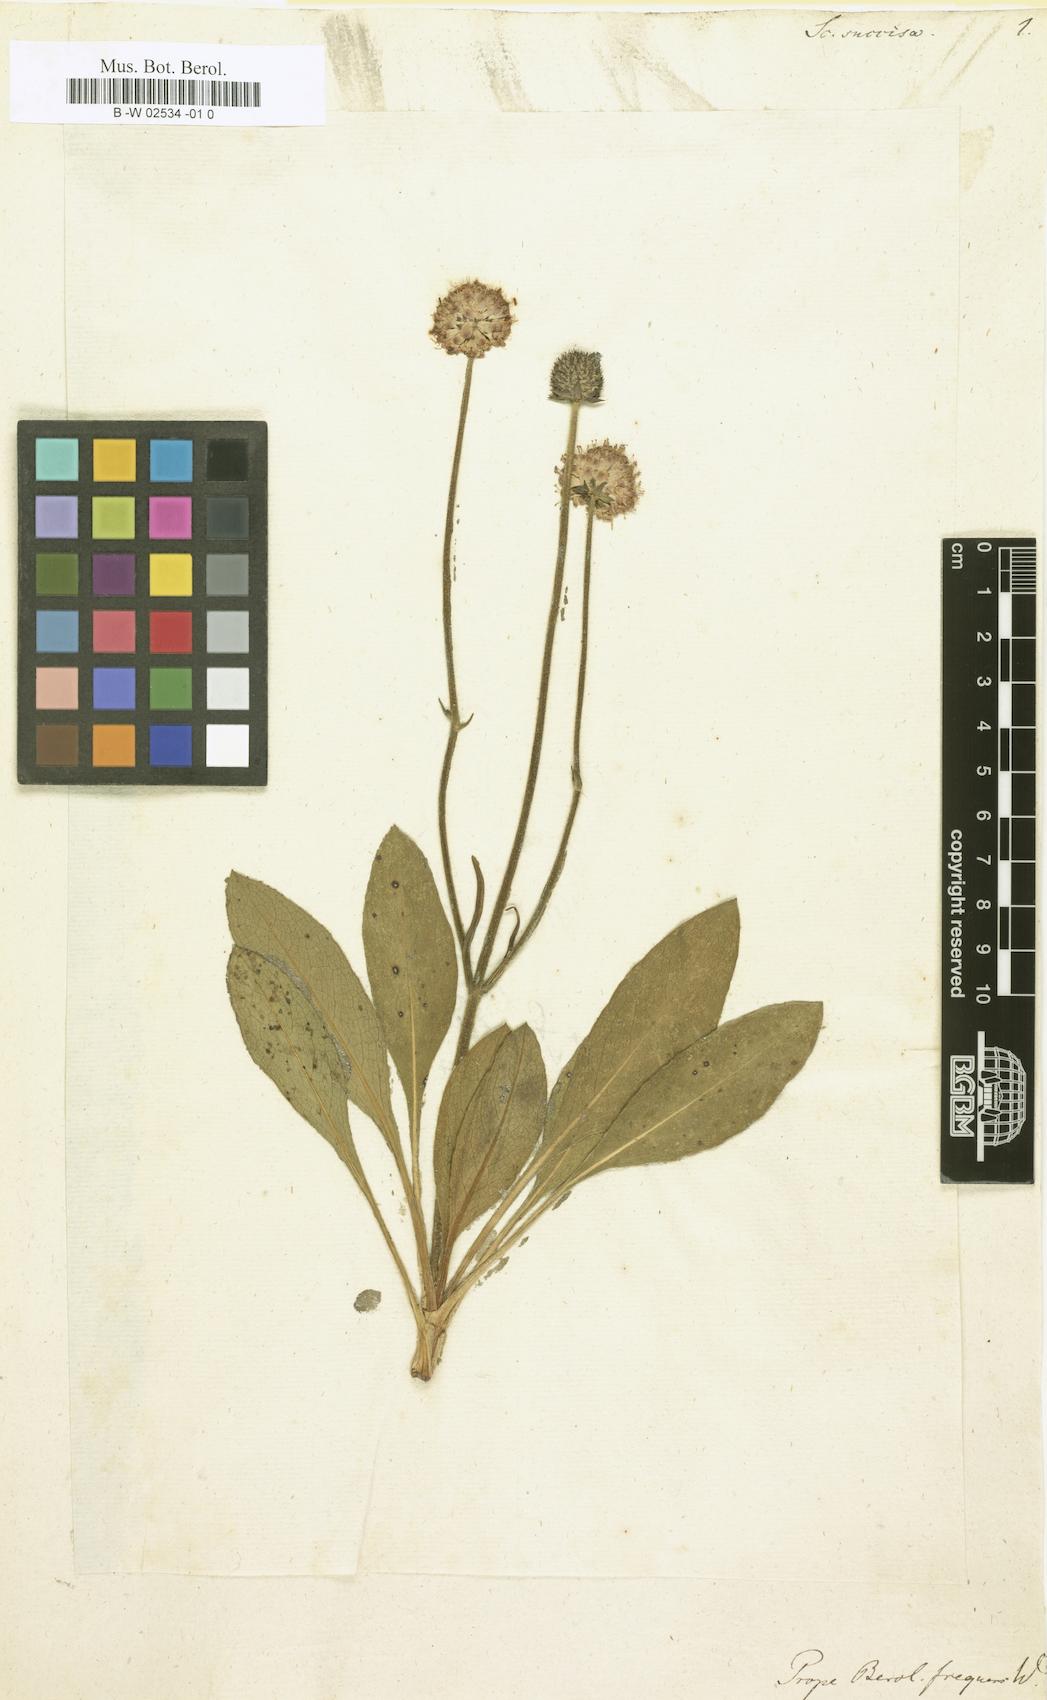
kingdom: Plantae
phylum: Tracheophyta
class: Magnoliopsida
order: Dipsacales
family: Caprifoliaceae
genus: Succisa
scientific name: Succisa pratensis
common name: Devil's-bit
